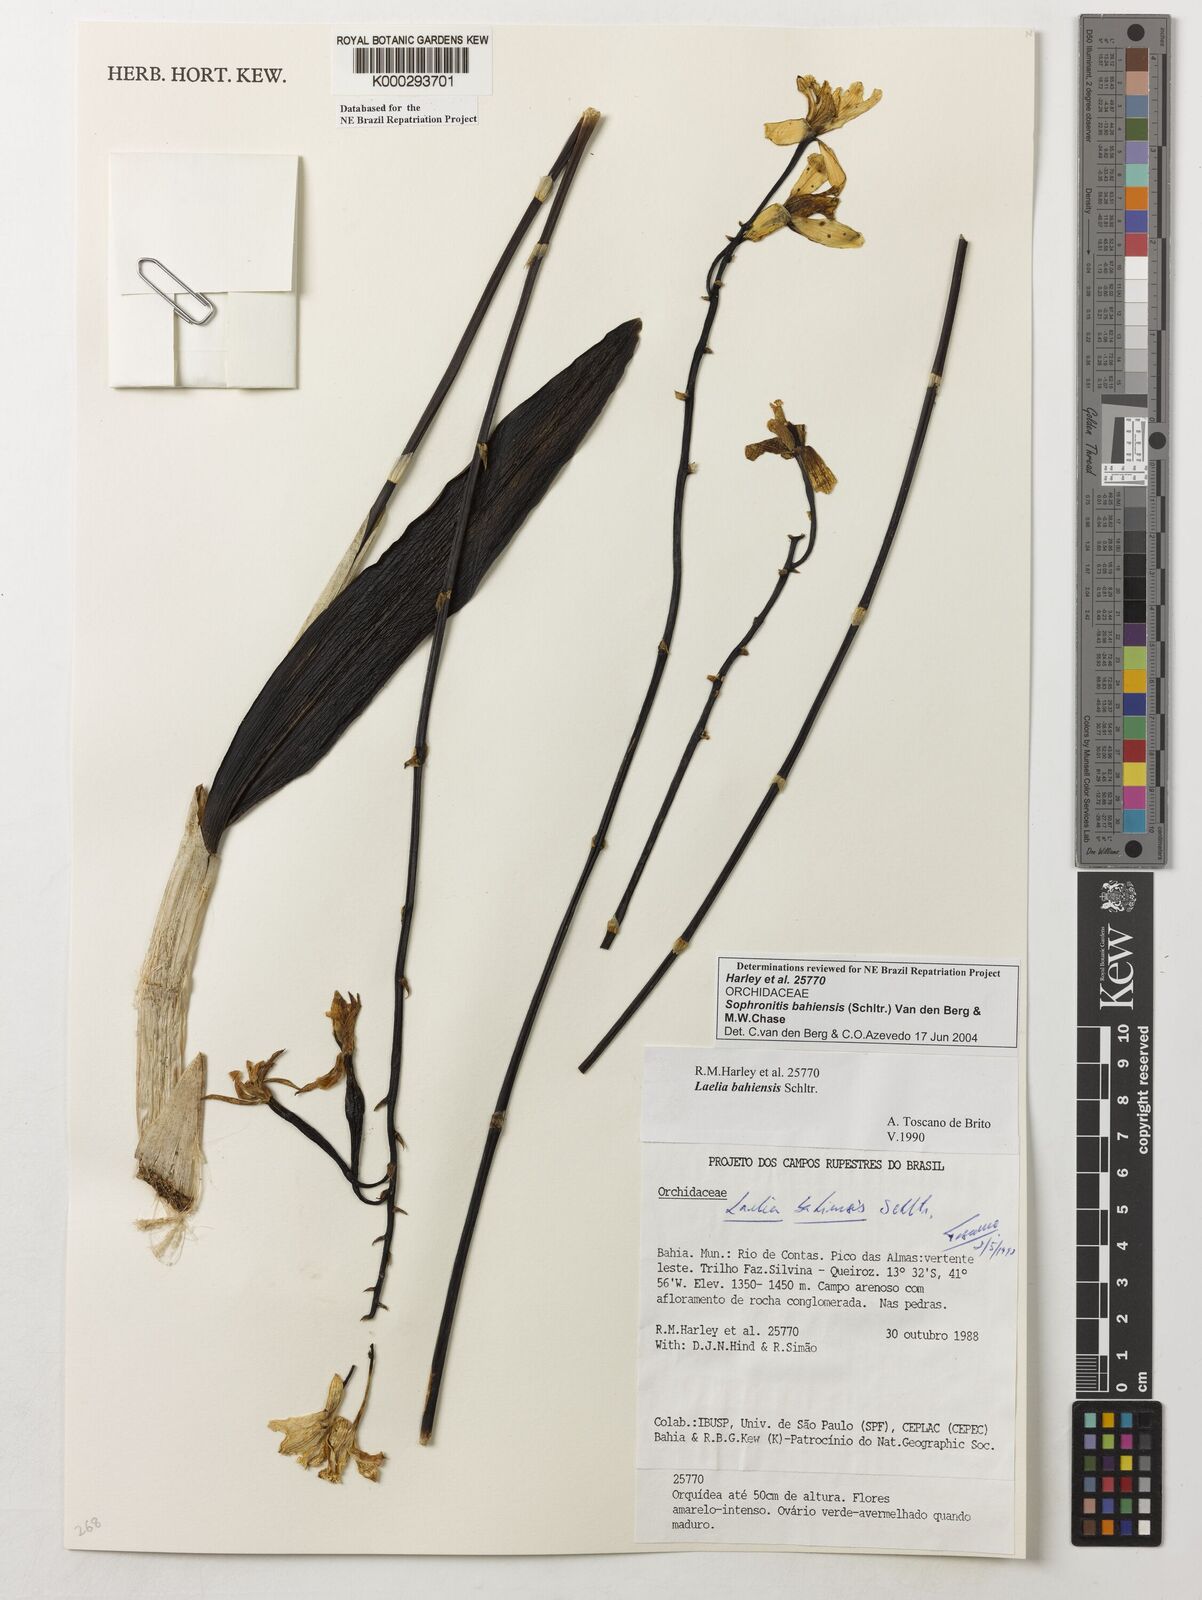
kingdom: Plantae
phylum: Tracheophyta
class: Liliopsida
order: Asparagales
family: Orchidaceae
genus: Cattleya
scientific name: Cattleya luetzelburgii
